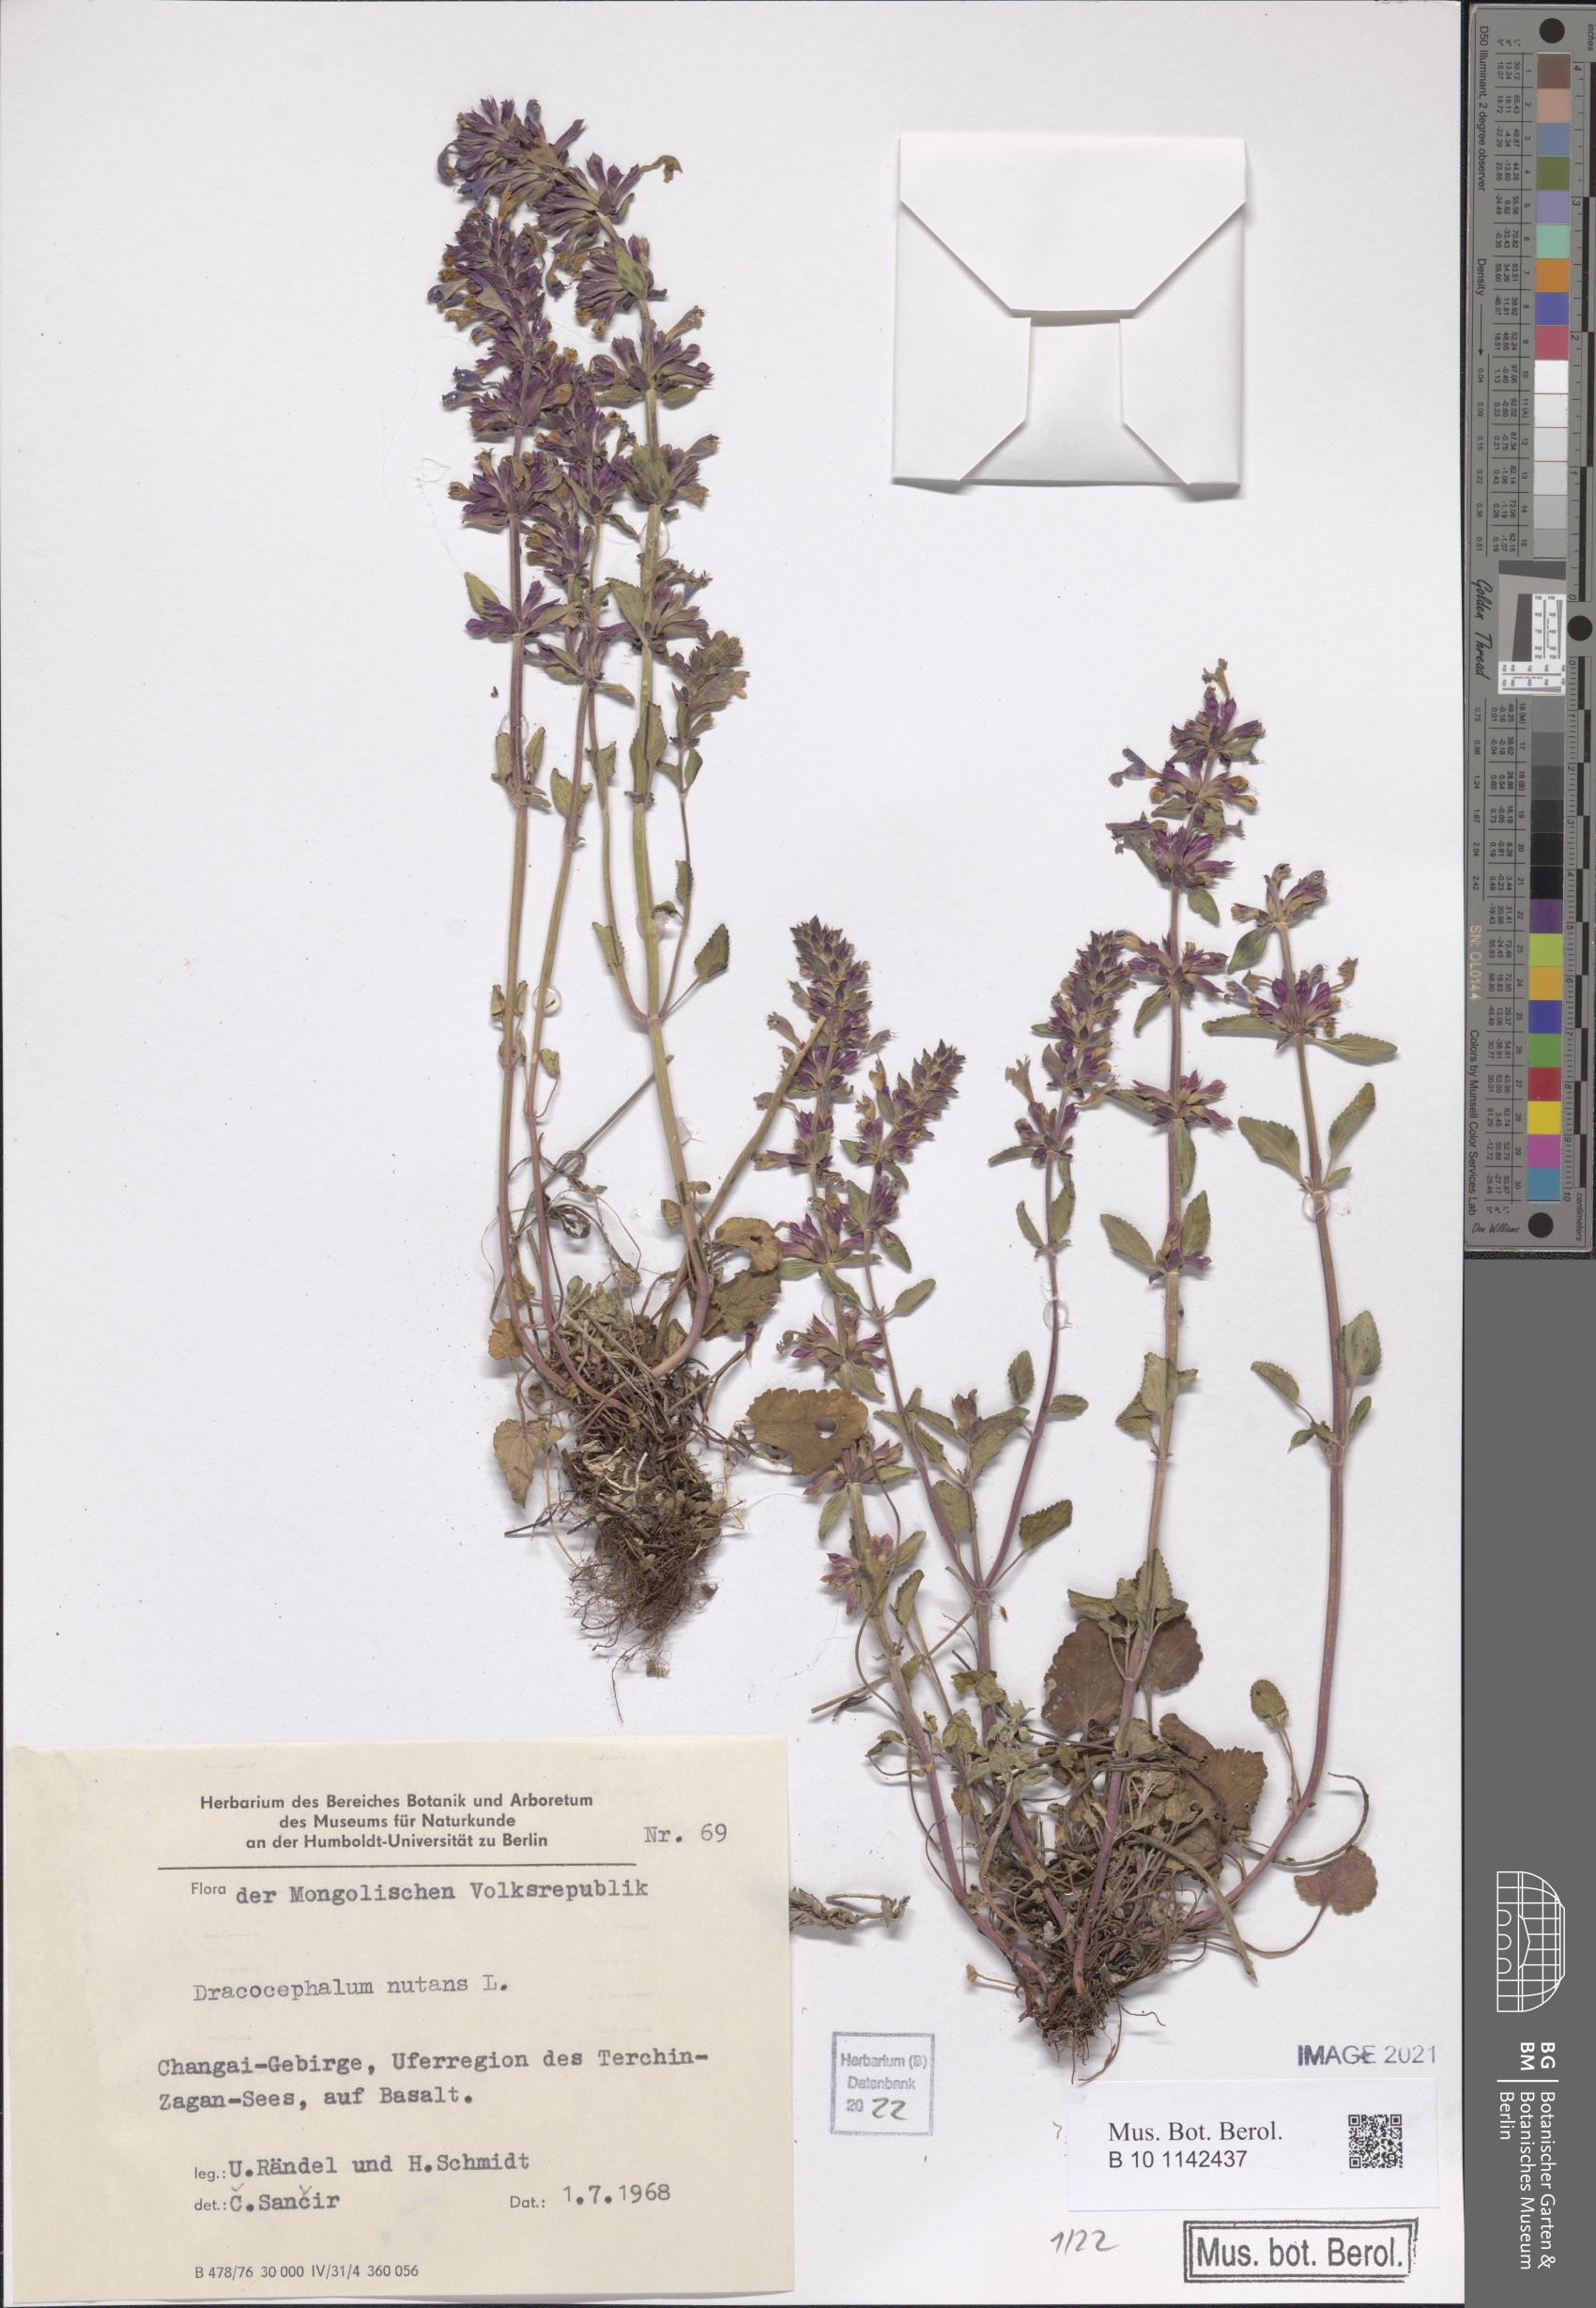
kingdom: Plantae
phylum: Tracheophyta
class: Magnoliopsida
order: Lamiales
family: Lamiaceae
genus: Dracocephalum
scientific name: Dracocephalum nutans
